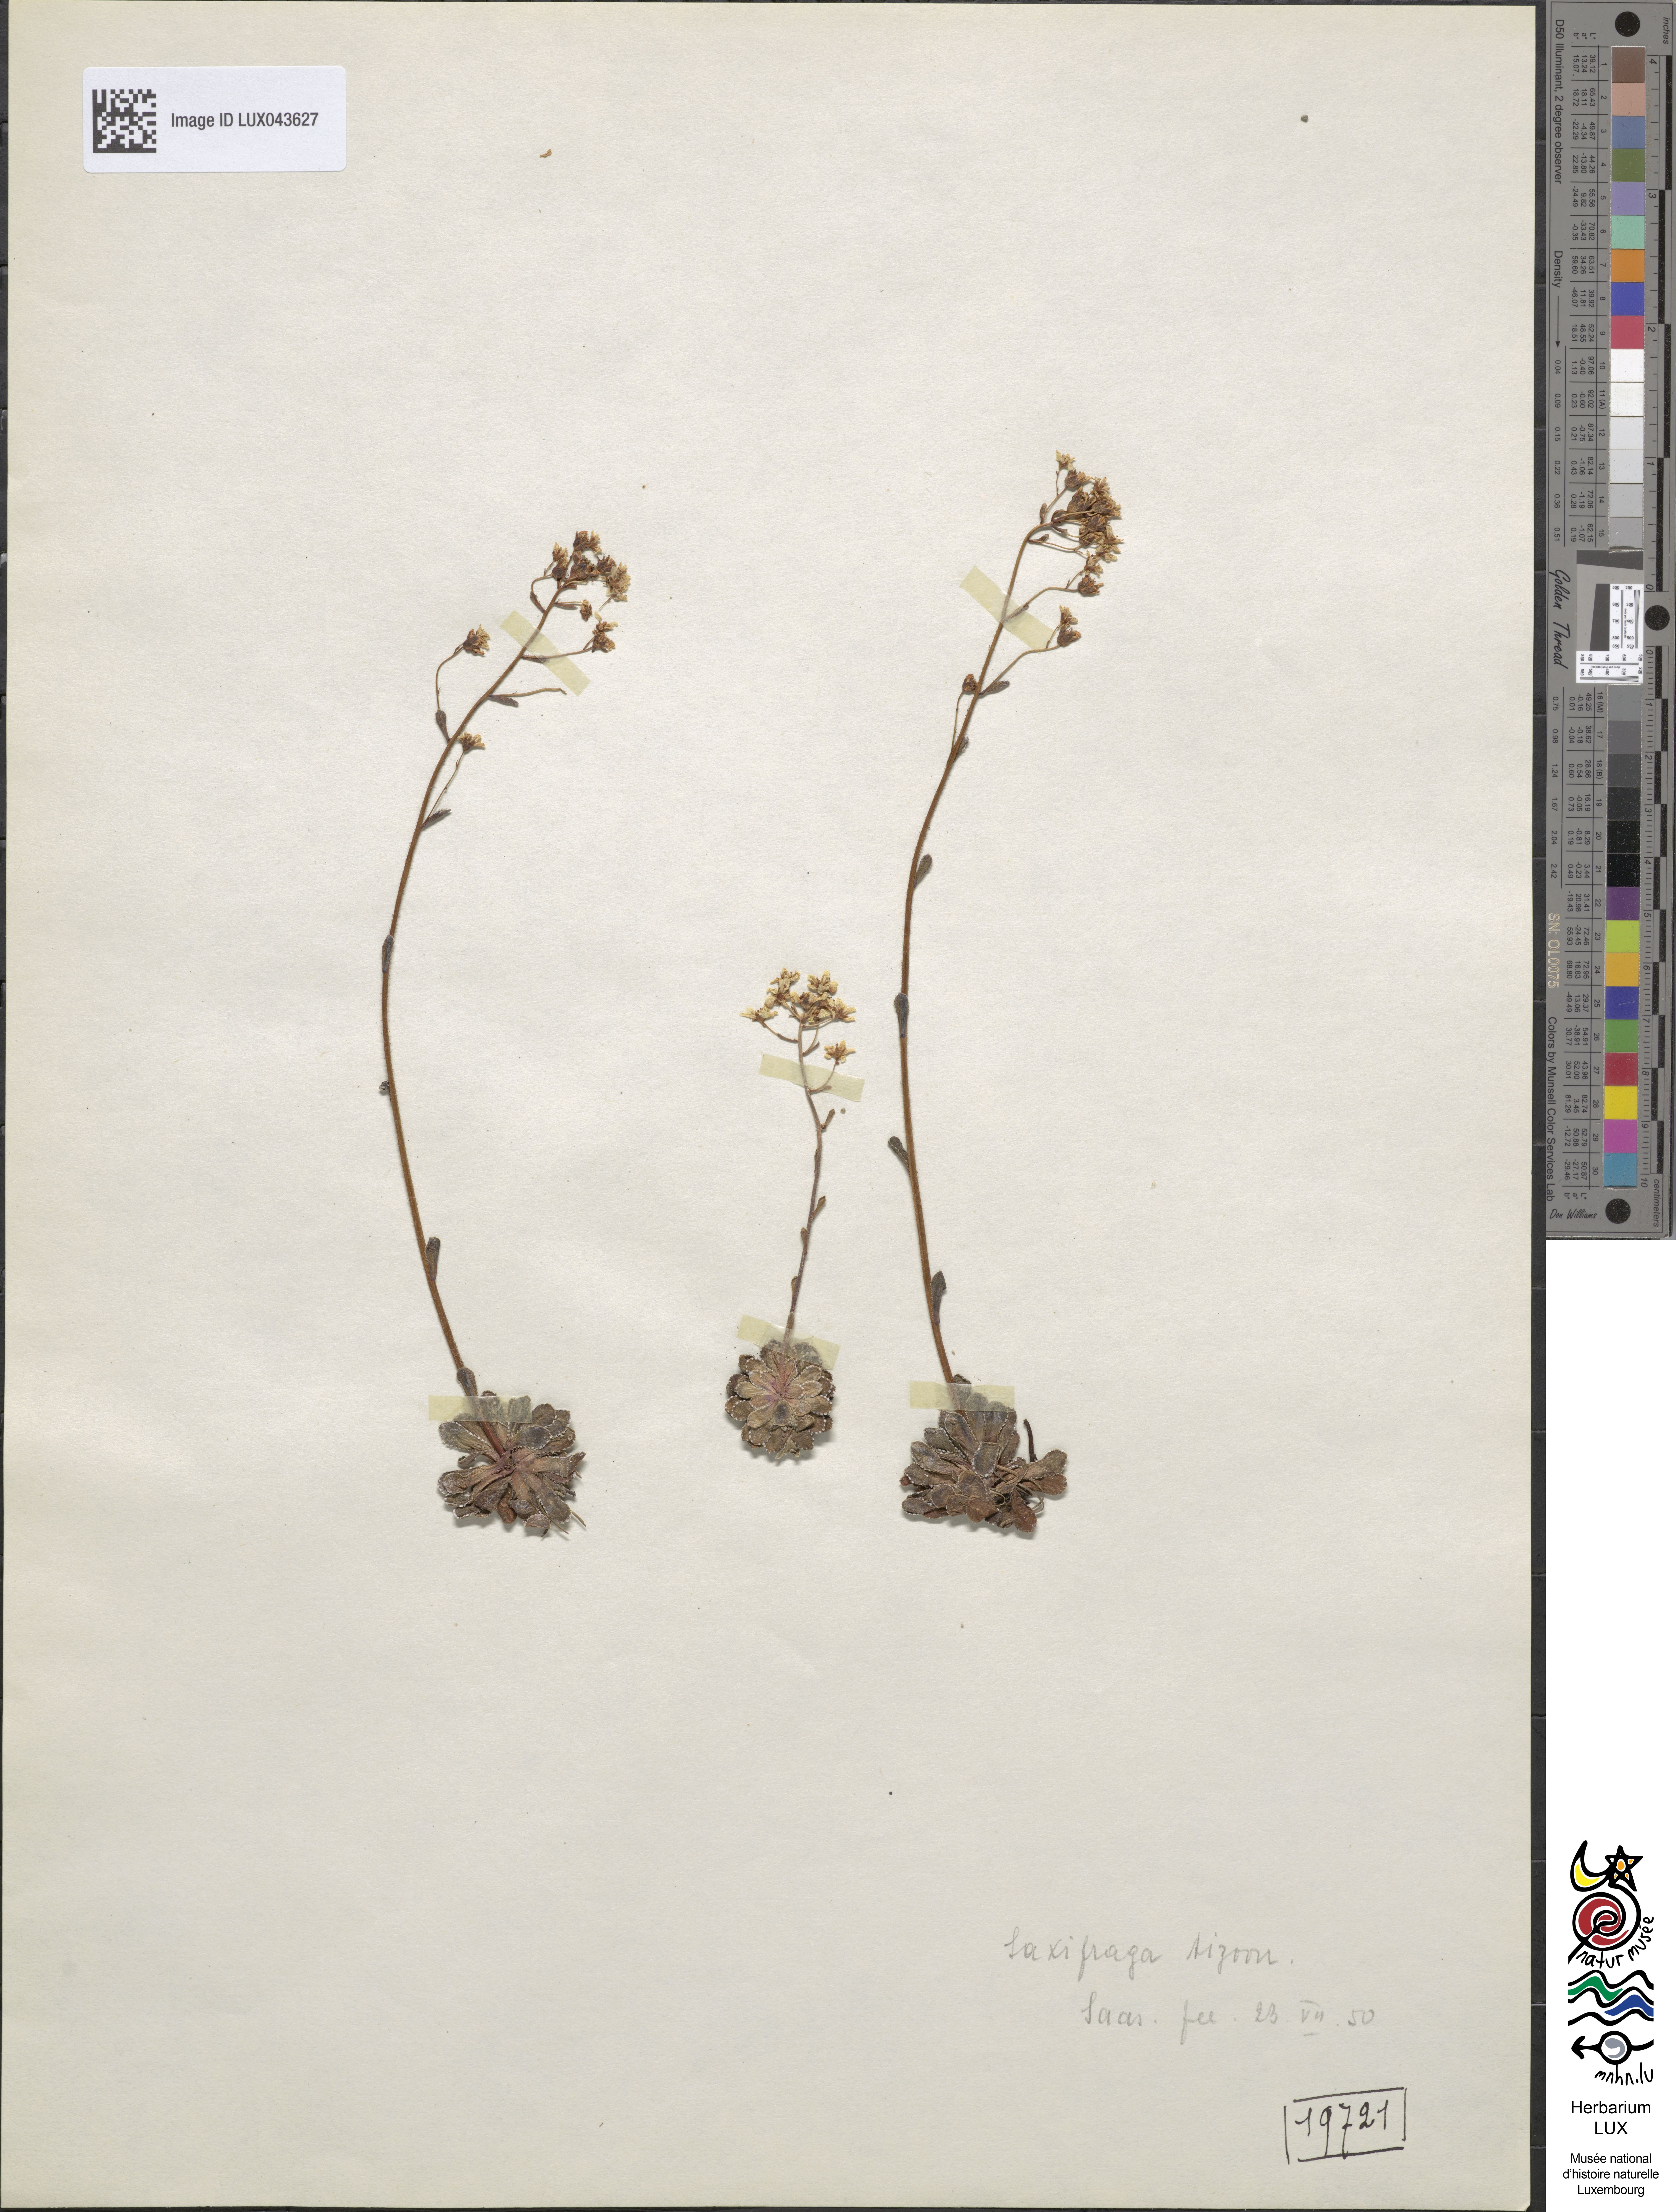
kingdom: Plantae
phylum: Tracheophyta
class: Magnoliopsida
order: Saxifragales
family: Saxifragaceae
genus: Saxifraga
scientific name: Saxifraga paniculata
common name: Livelong saxifrage
